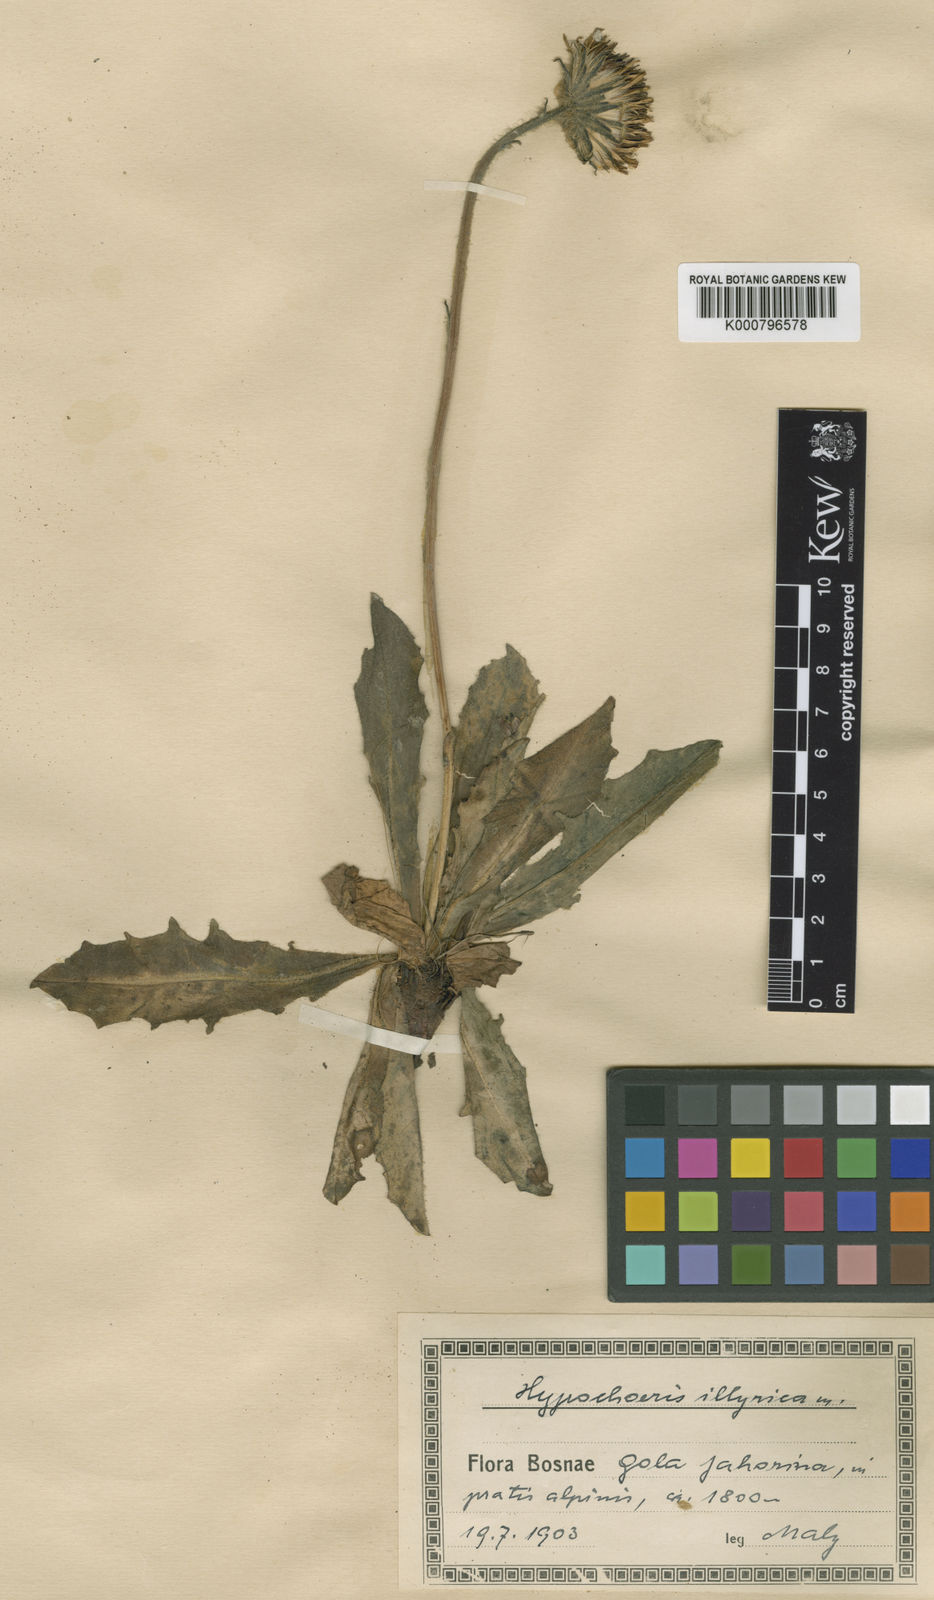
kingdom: Plantae
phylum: Tracheophyta
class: Magnoliopsida
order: Asterales
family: Asteraceae
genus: Hypochaeris
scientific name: Hypochaeris
